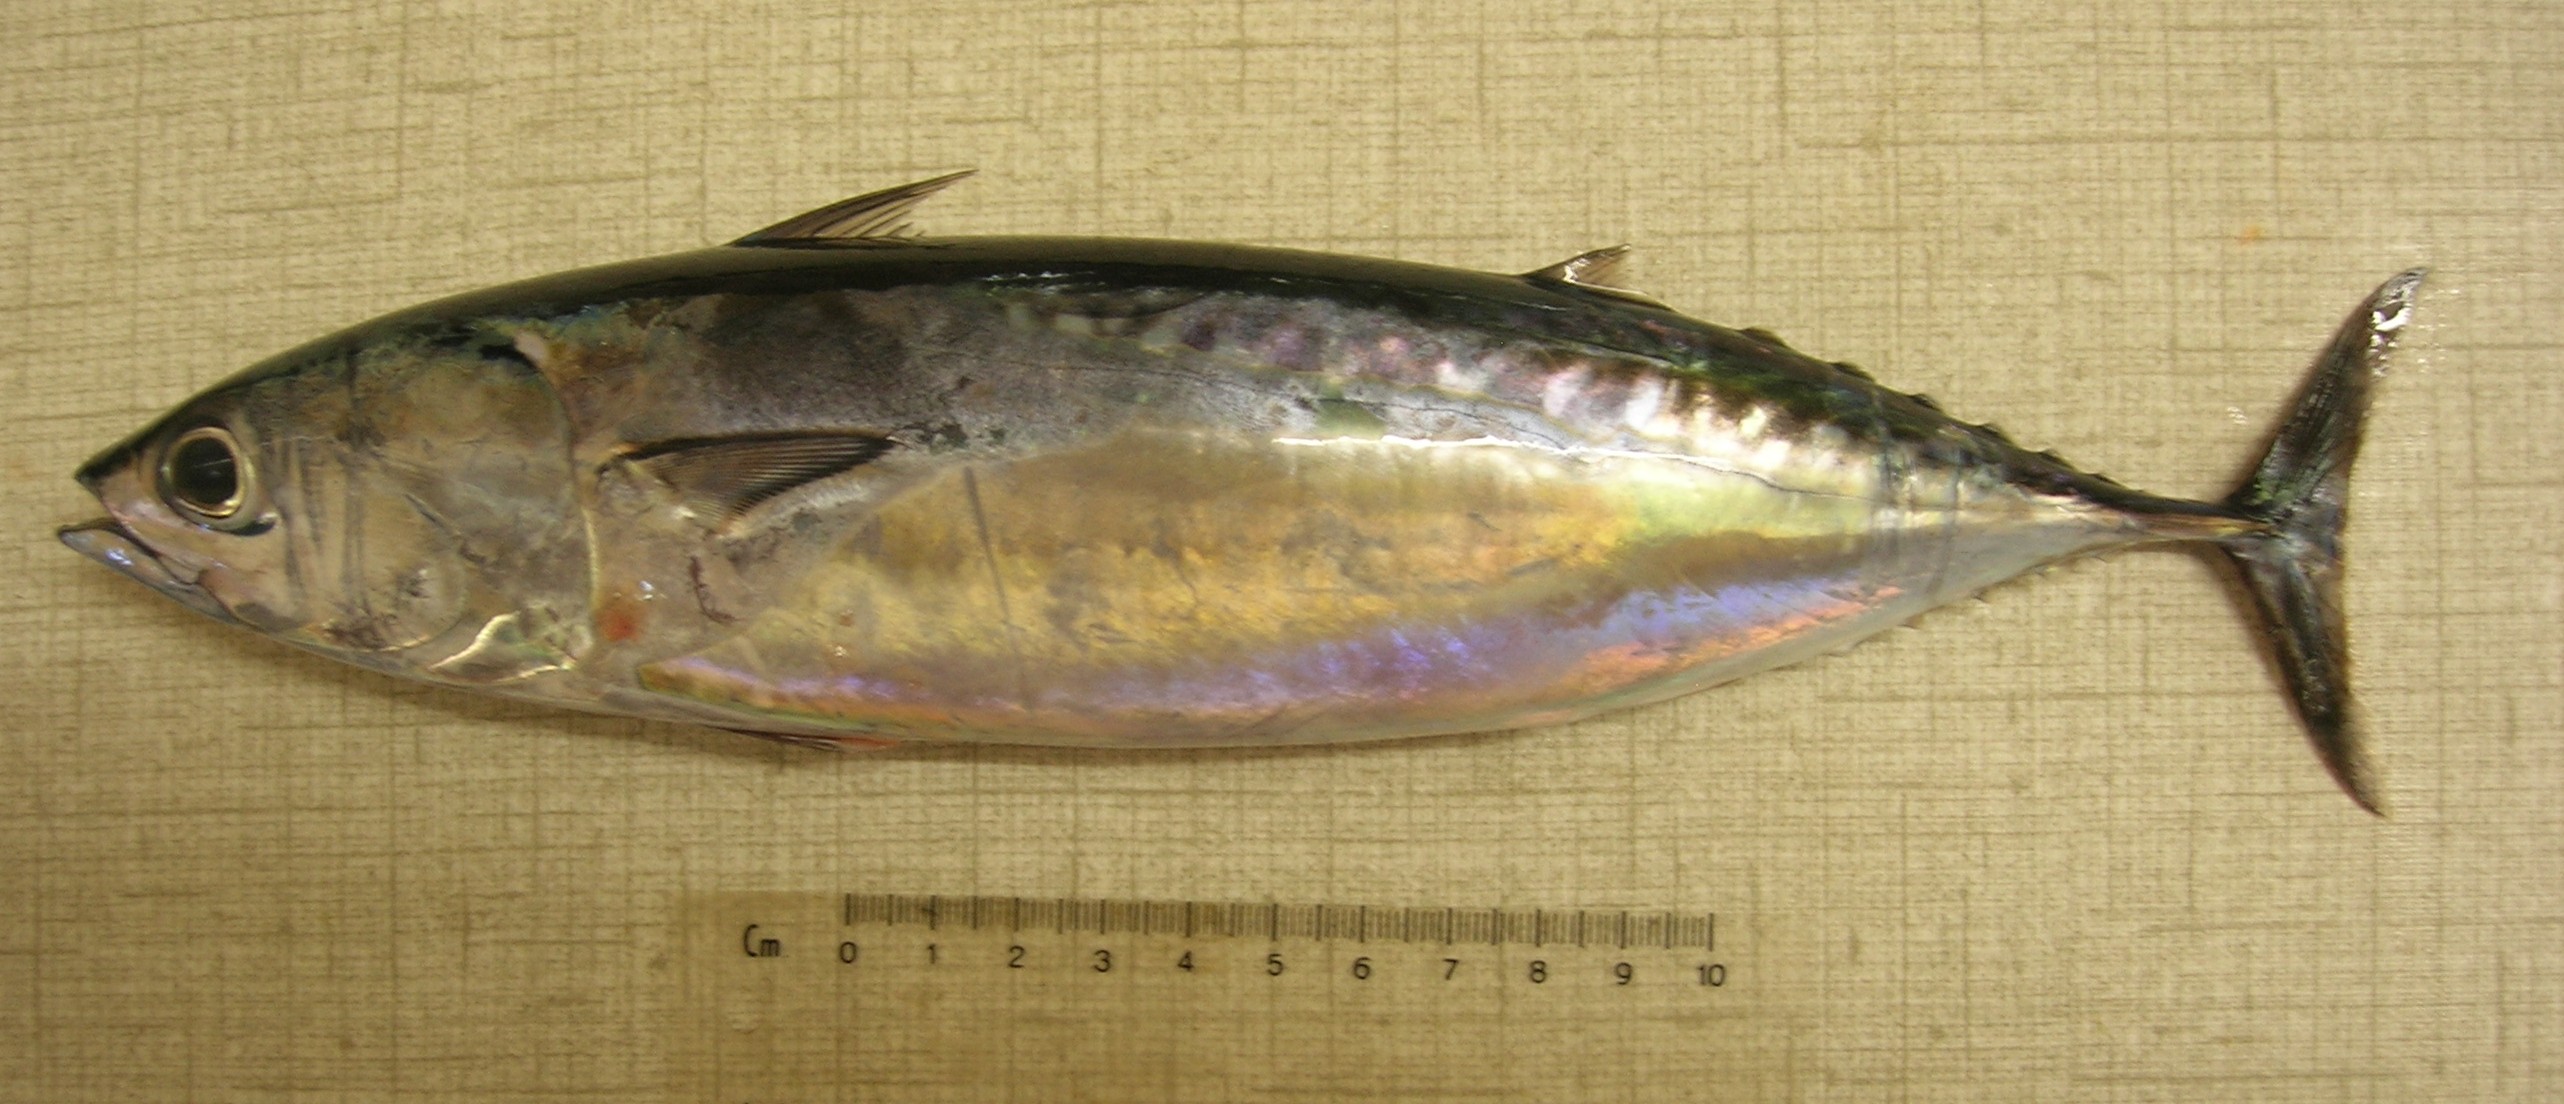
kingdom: Animalia
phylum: Chordata
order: Perciformes
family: Scombridae
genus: Auxis
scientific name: Auxis rochei
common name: Bullet tuna
